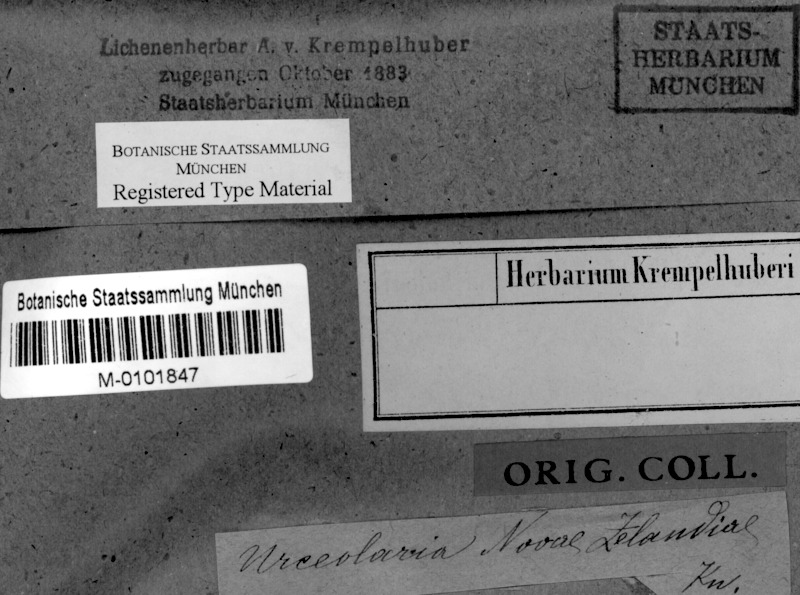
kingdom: Fungi
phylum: Ascomycota
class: Lecanoromycetes
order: Ostropales
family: Graphidaceae
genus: Diploschistes
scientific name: Diploschistes euganeus
